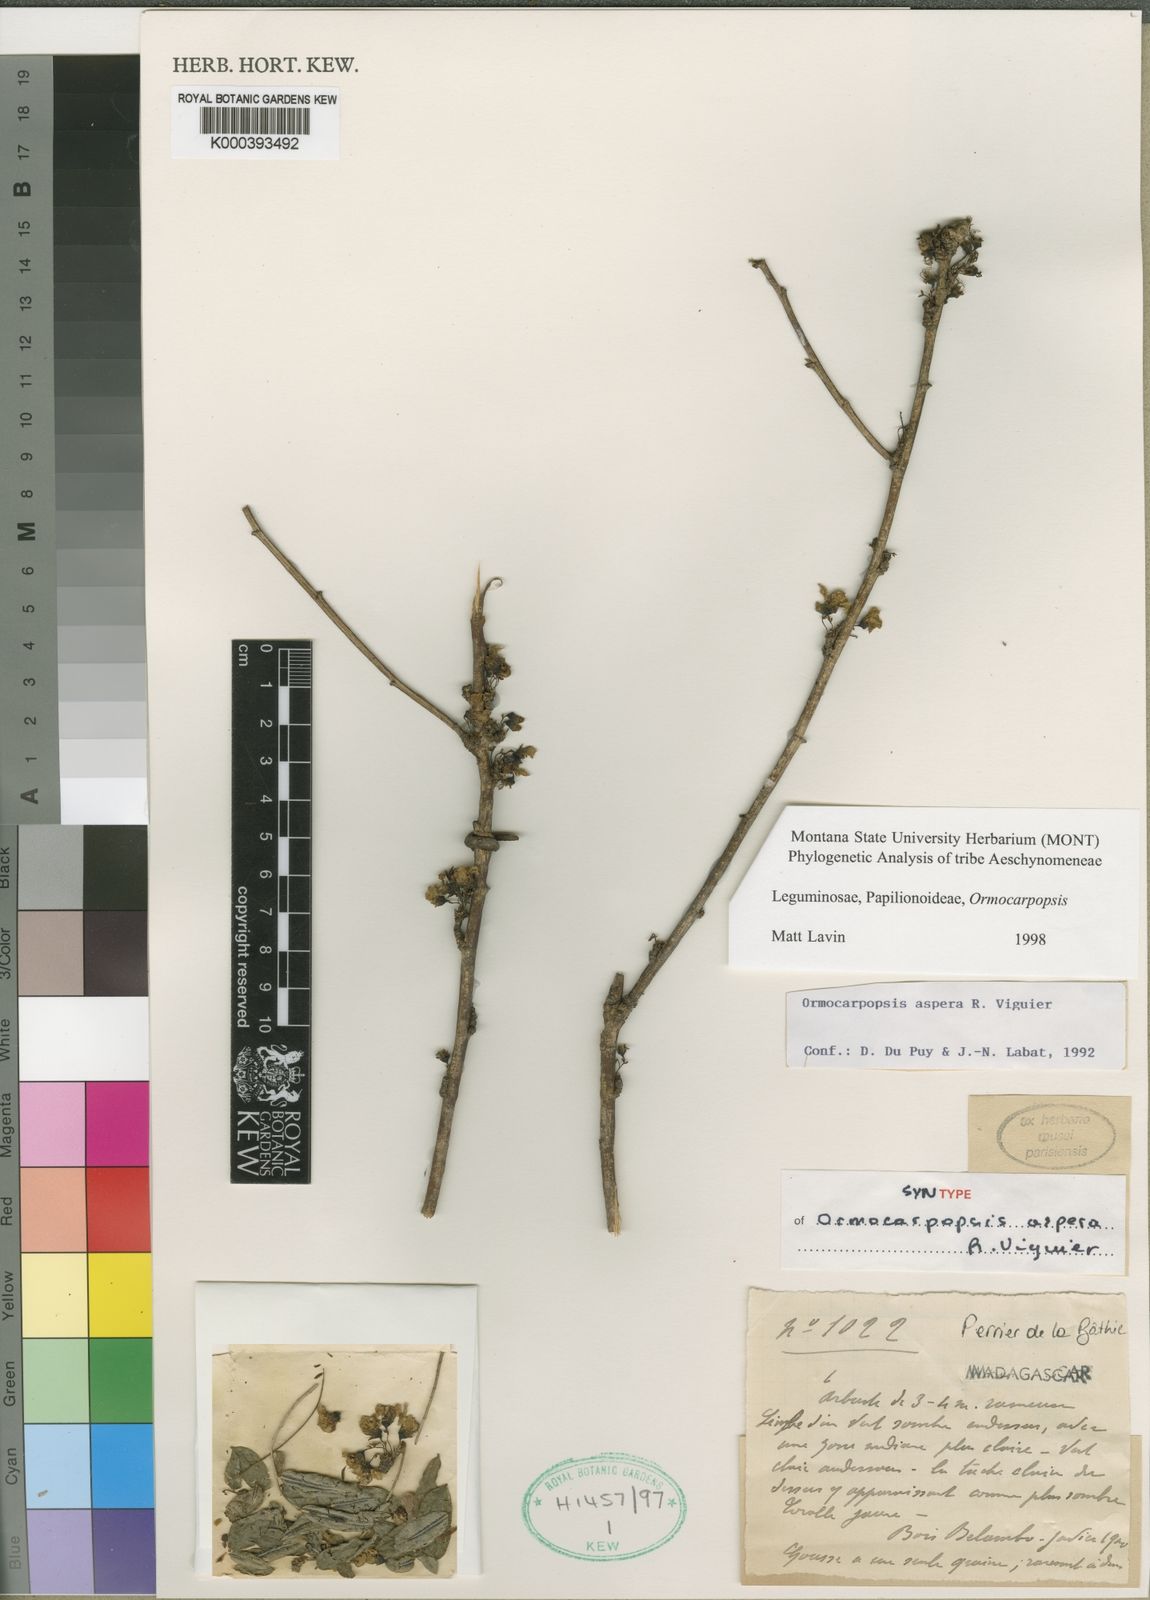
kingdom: Plantae
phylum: Tracheophyta
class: Magnoliopsida
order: Fabales
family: Fabaceae
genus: Ormocarpopsis
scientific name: Ormocarpopsis aspera
